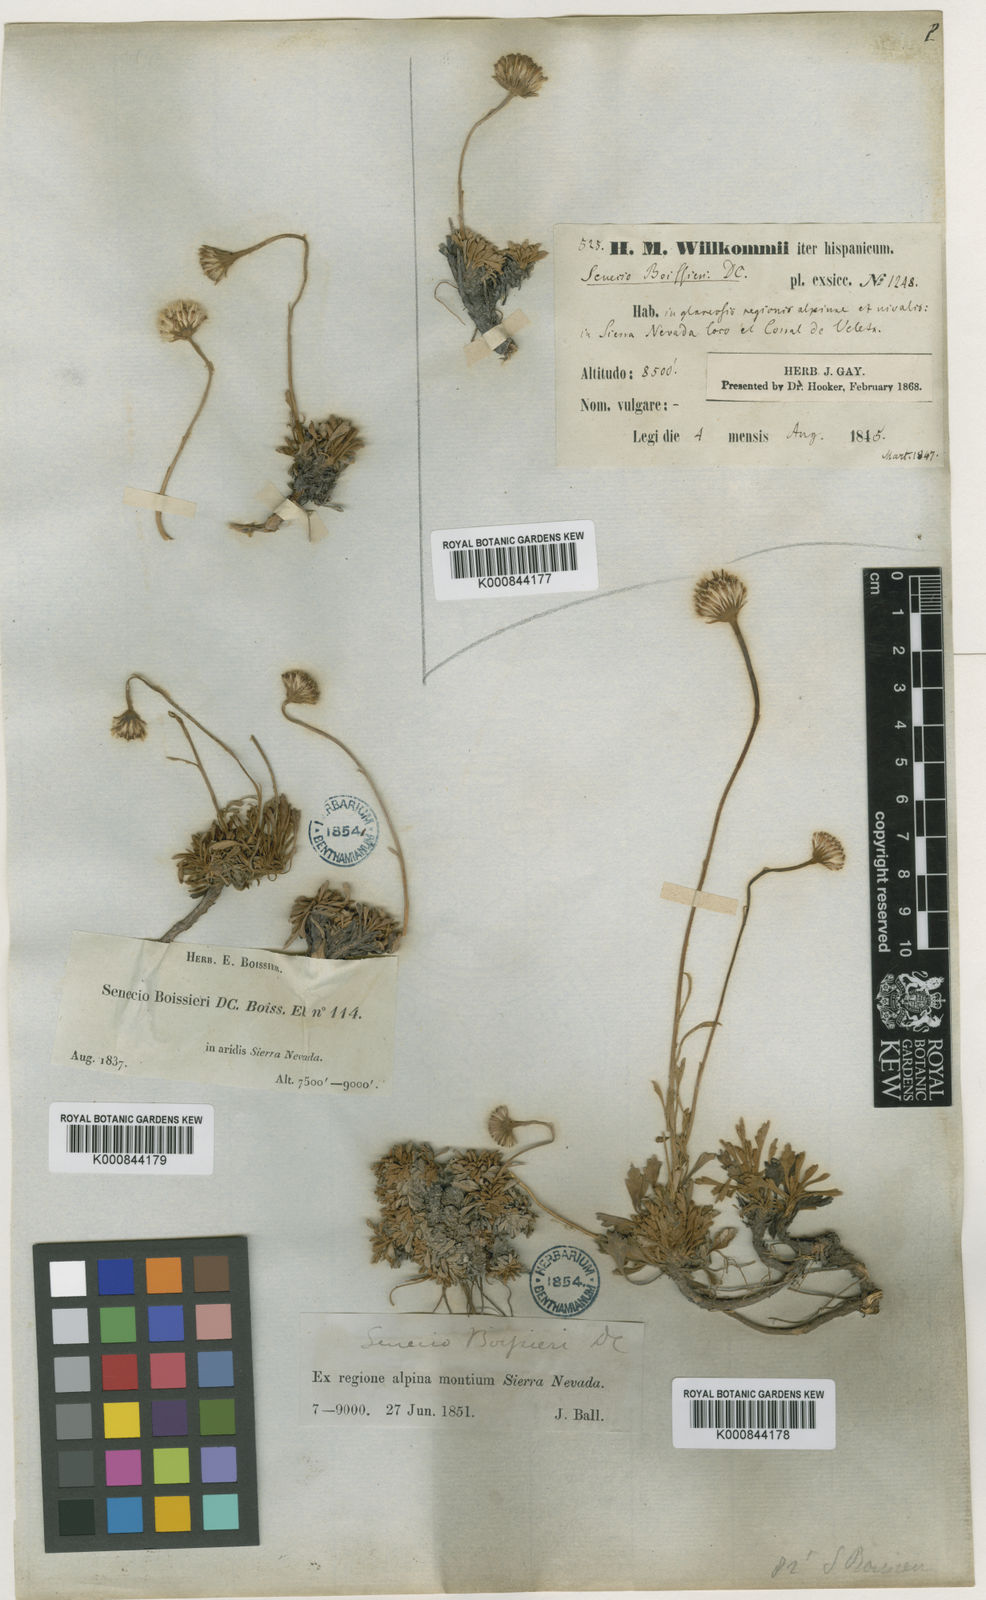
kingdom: Plantae
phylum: Tracheophyta
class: Magnoliopsida
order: Asterales
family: Asteraceae
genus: Jacobaea
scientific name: Jacobaea boissieri
